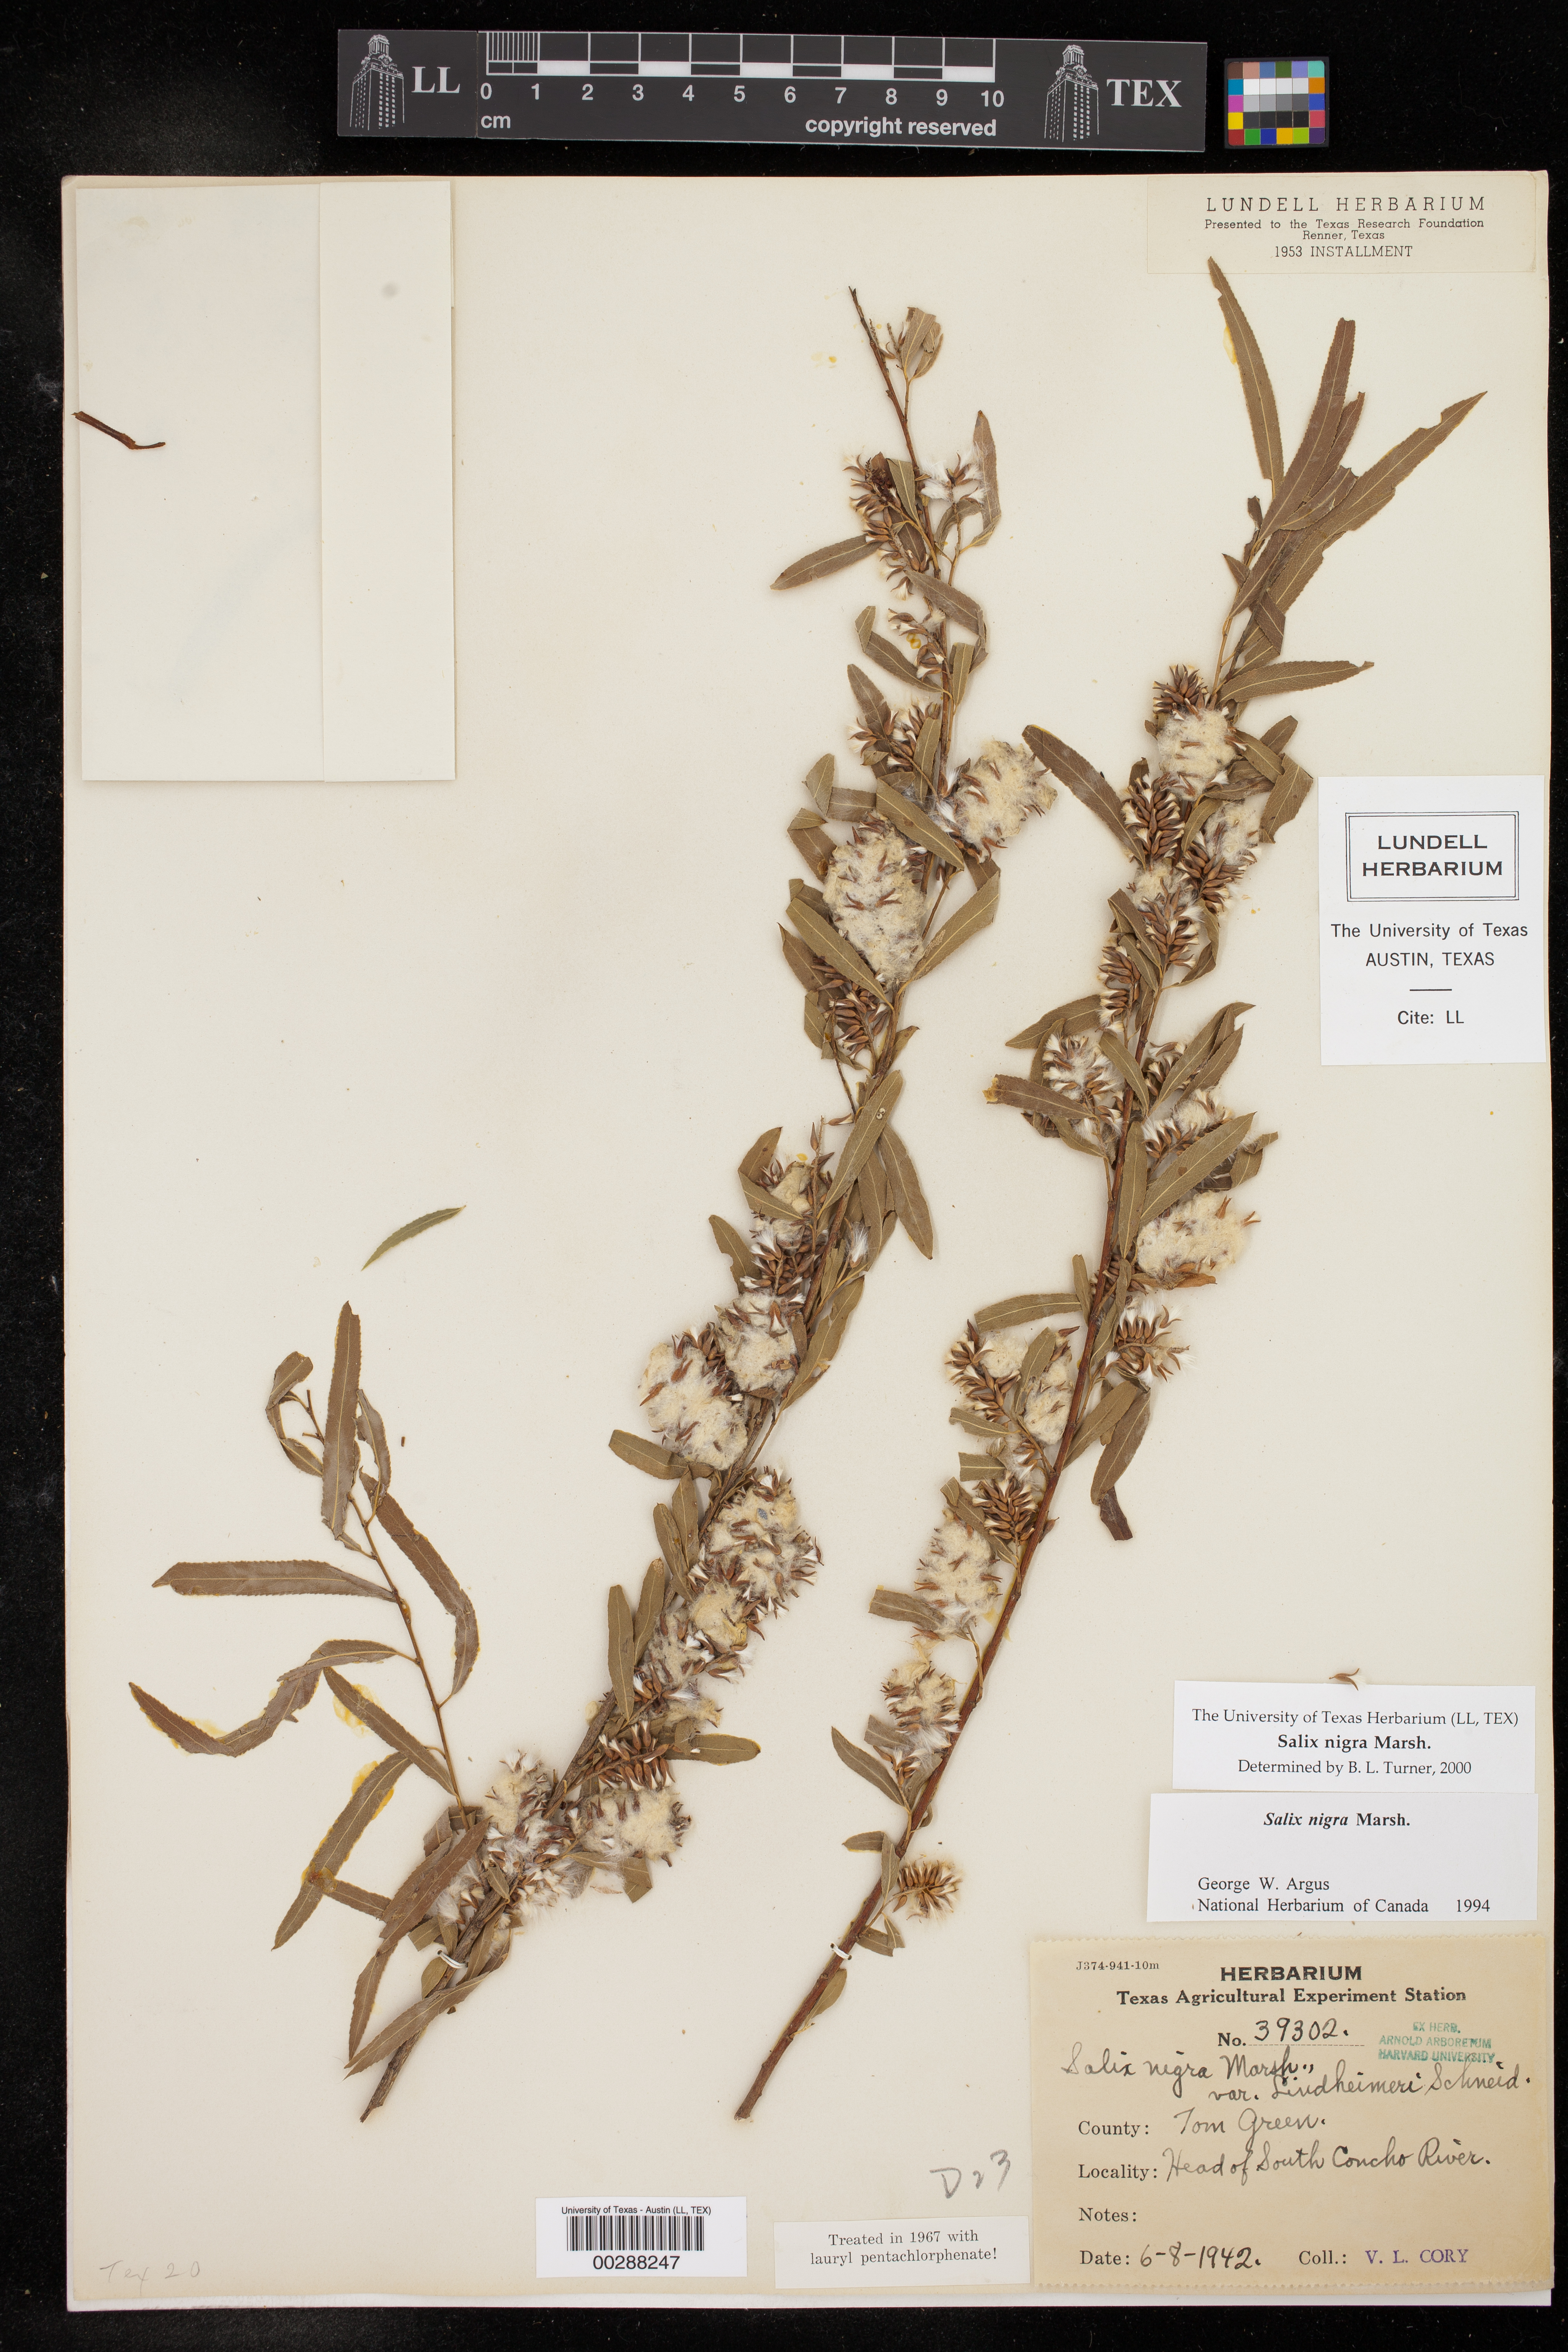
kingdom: Plantae
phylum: Tracheophyta
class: Magnoliopsida
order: Malpighiales
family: Salicaceae
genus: Salix
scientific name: Salix nigra
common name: Black willow
